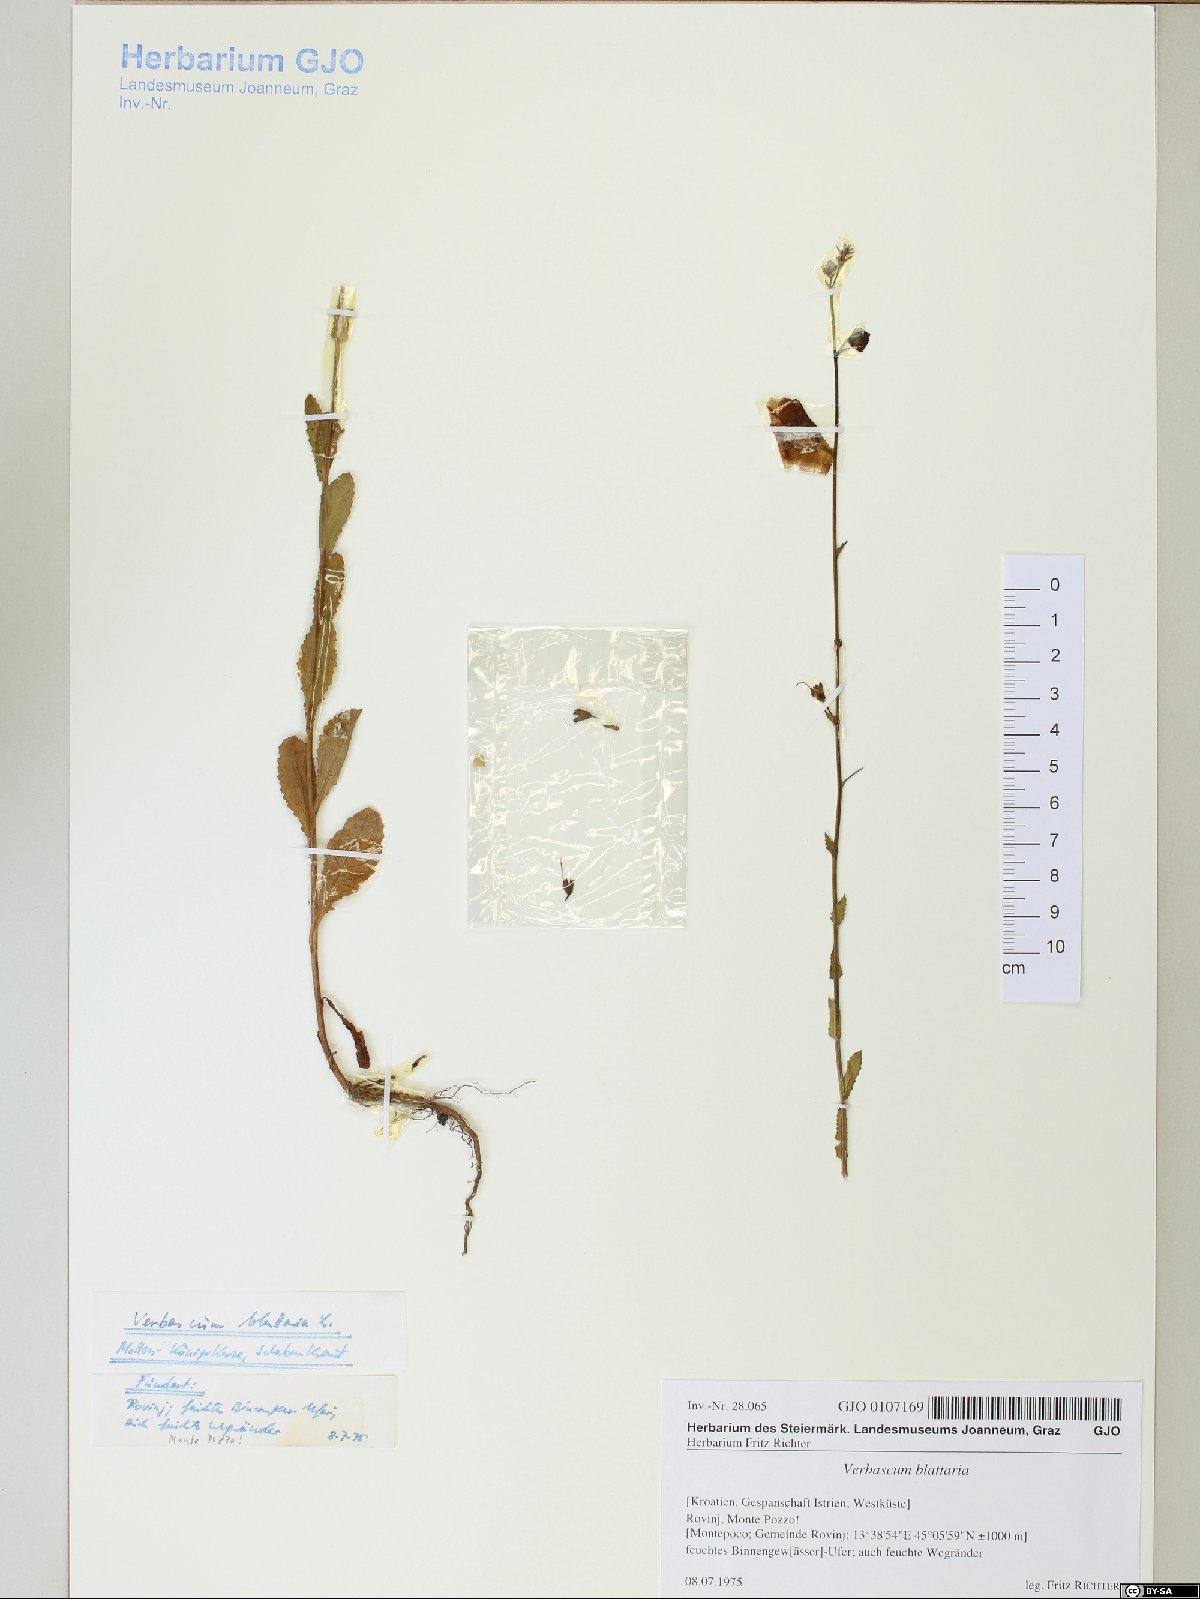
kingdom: Plantae
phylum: Tracheophyta
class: Magnoliopsida
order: Lamiales
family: Scrophulariaceae
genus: Verbascum
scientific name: Verbascum blattaria
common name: Moth mullein
